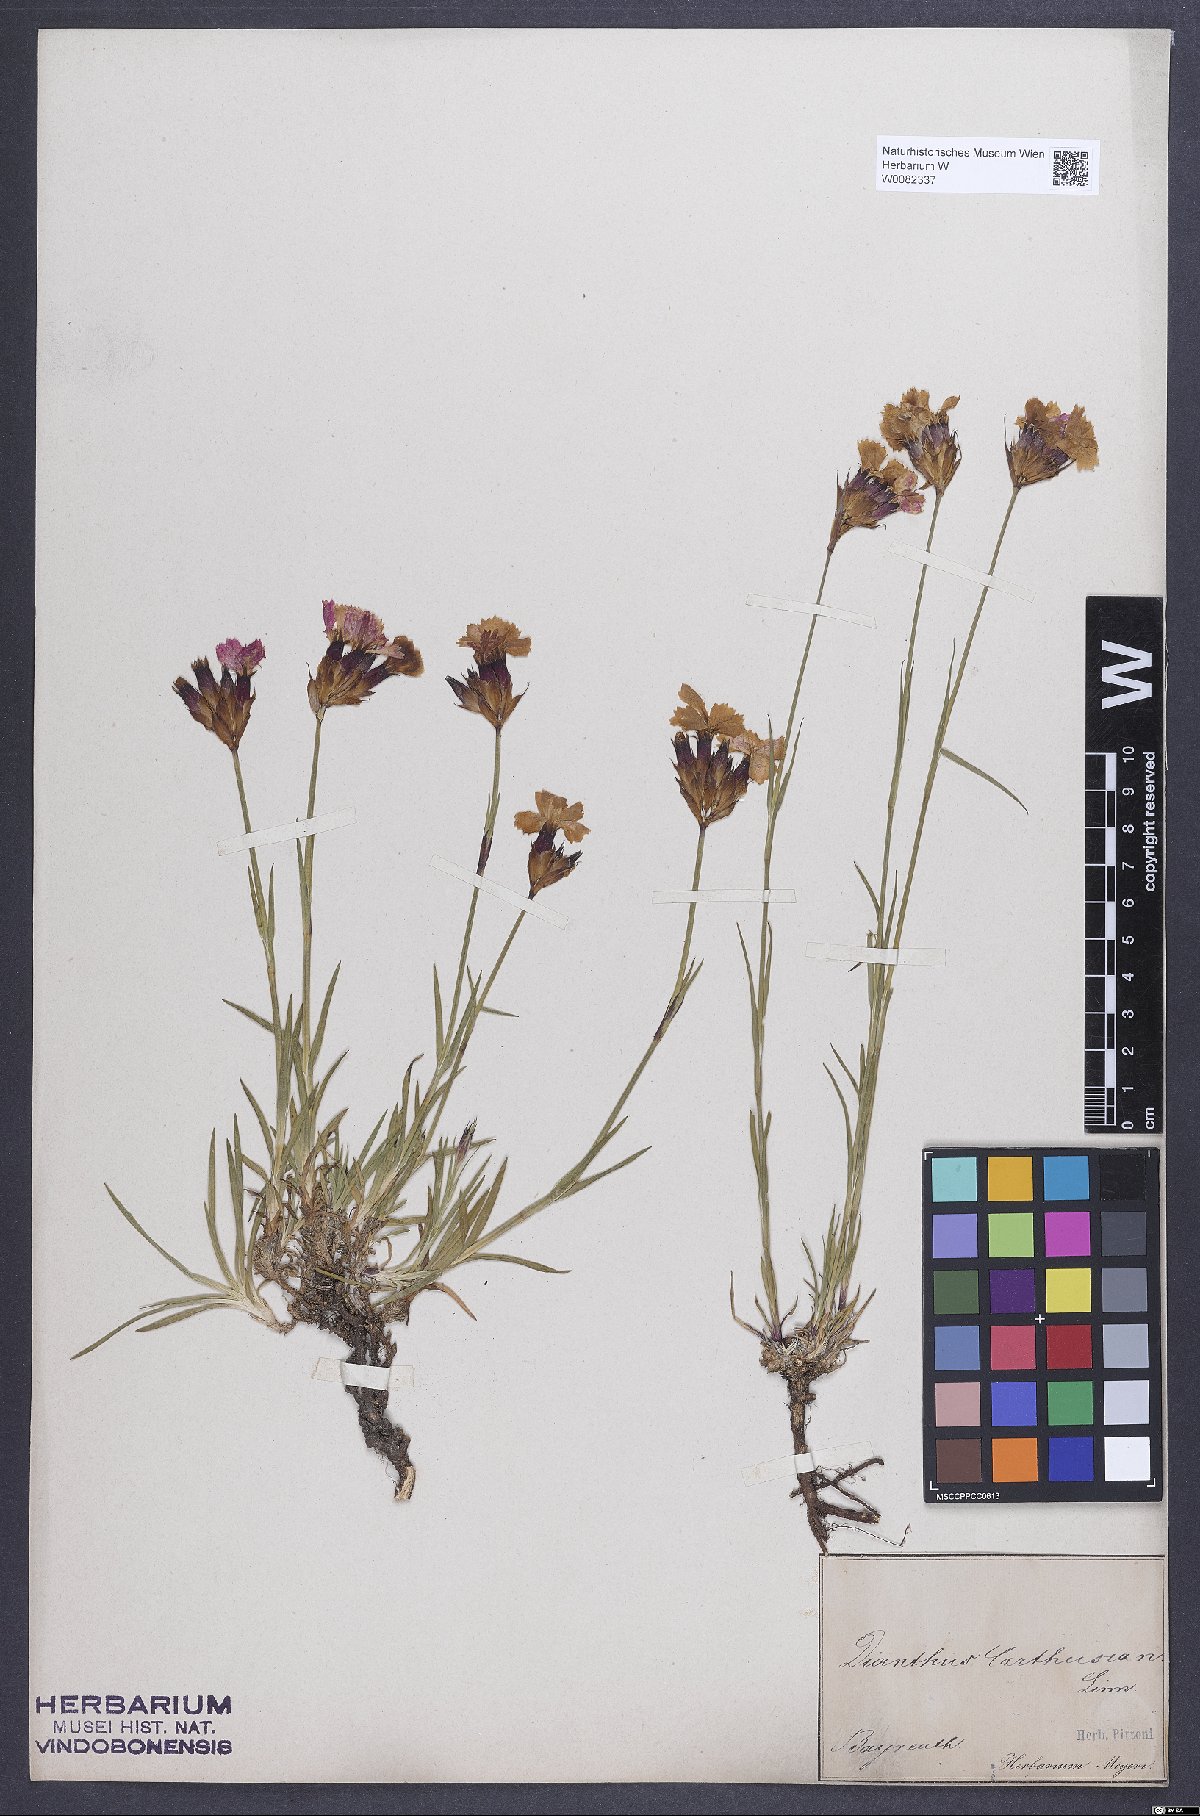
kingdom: Plantae
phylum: Tracheophyta
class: Magnoliopsida
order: Caryophyllales
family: Caryophyllaceae
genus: Dianthus
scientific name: Dianthus carthusianorum
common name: Carthusian pink
